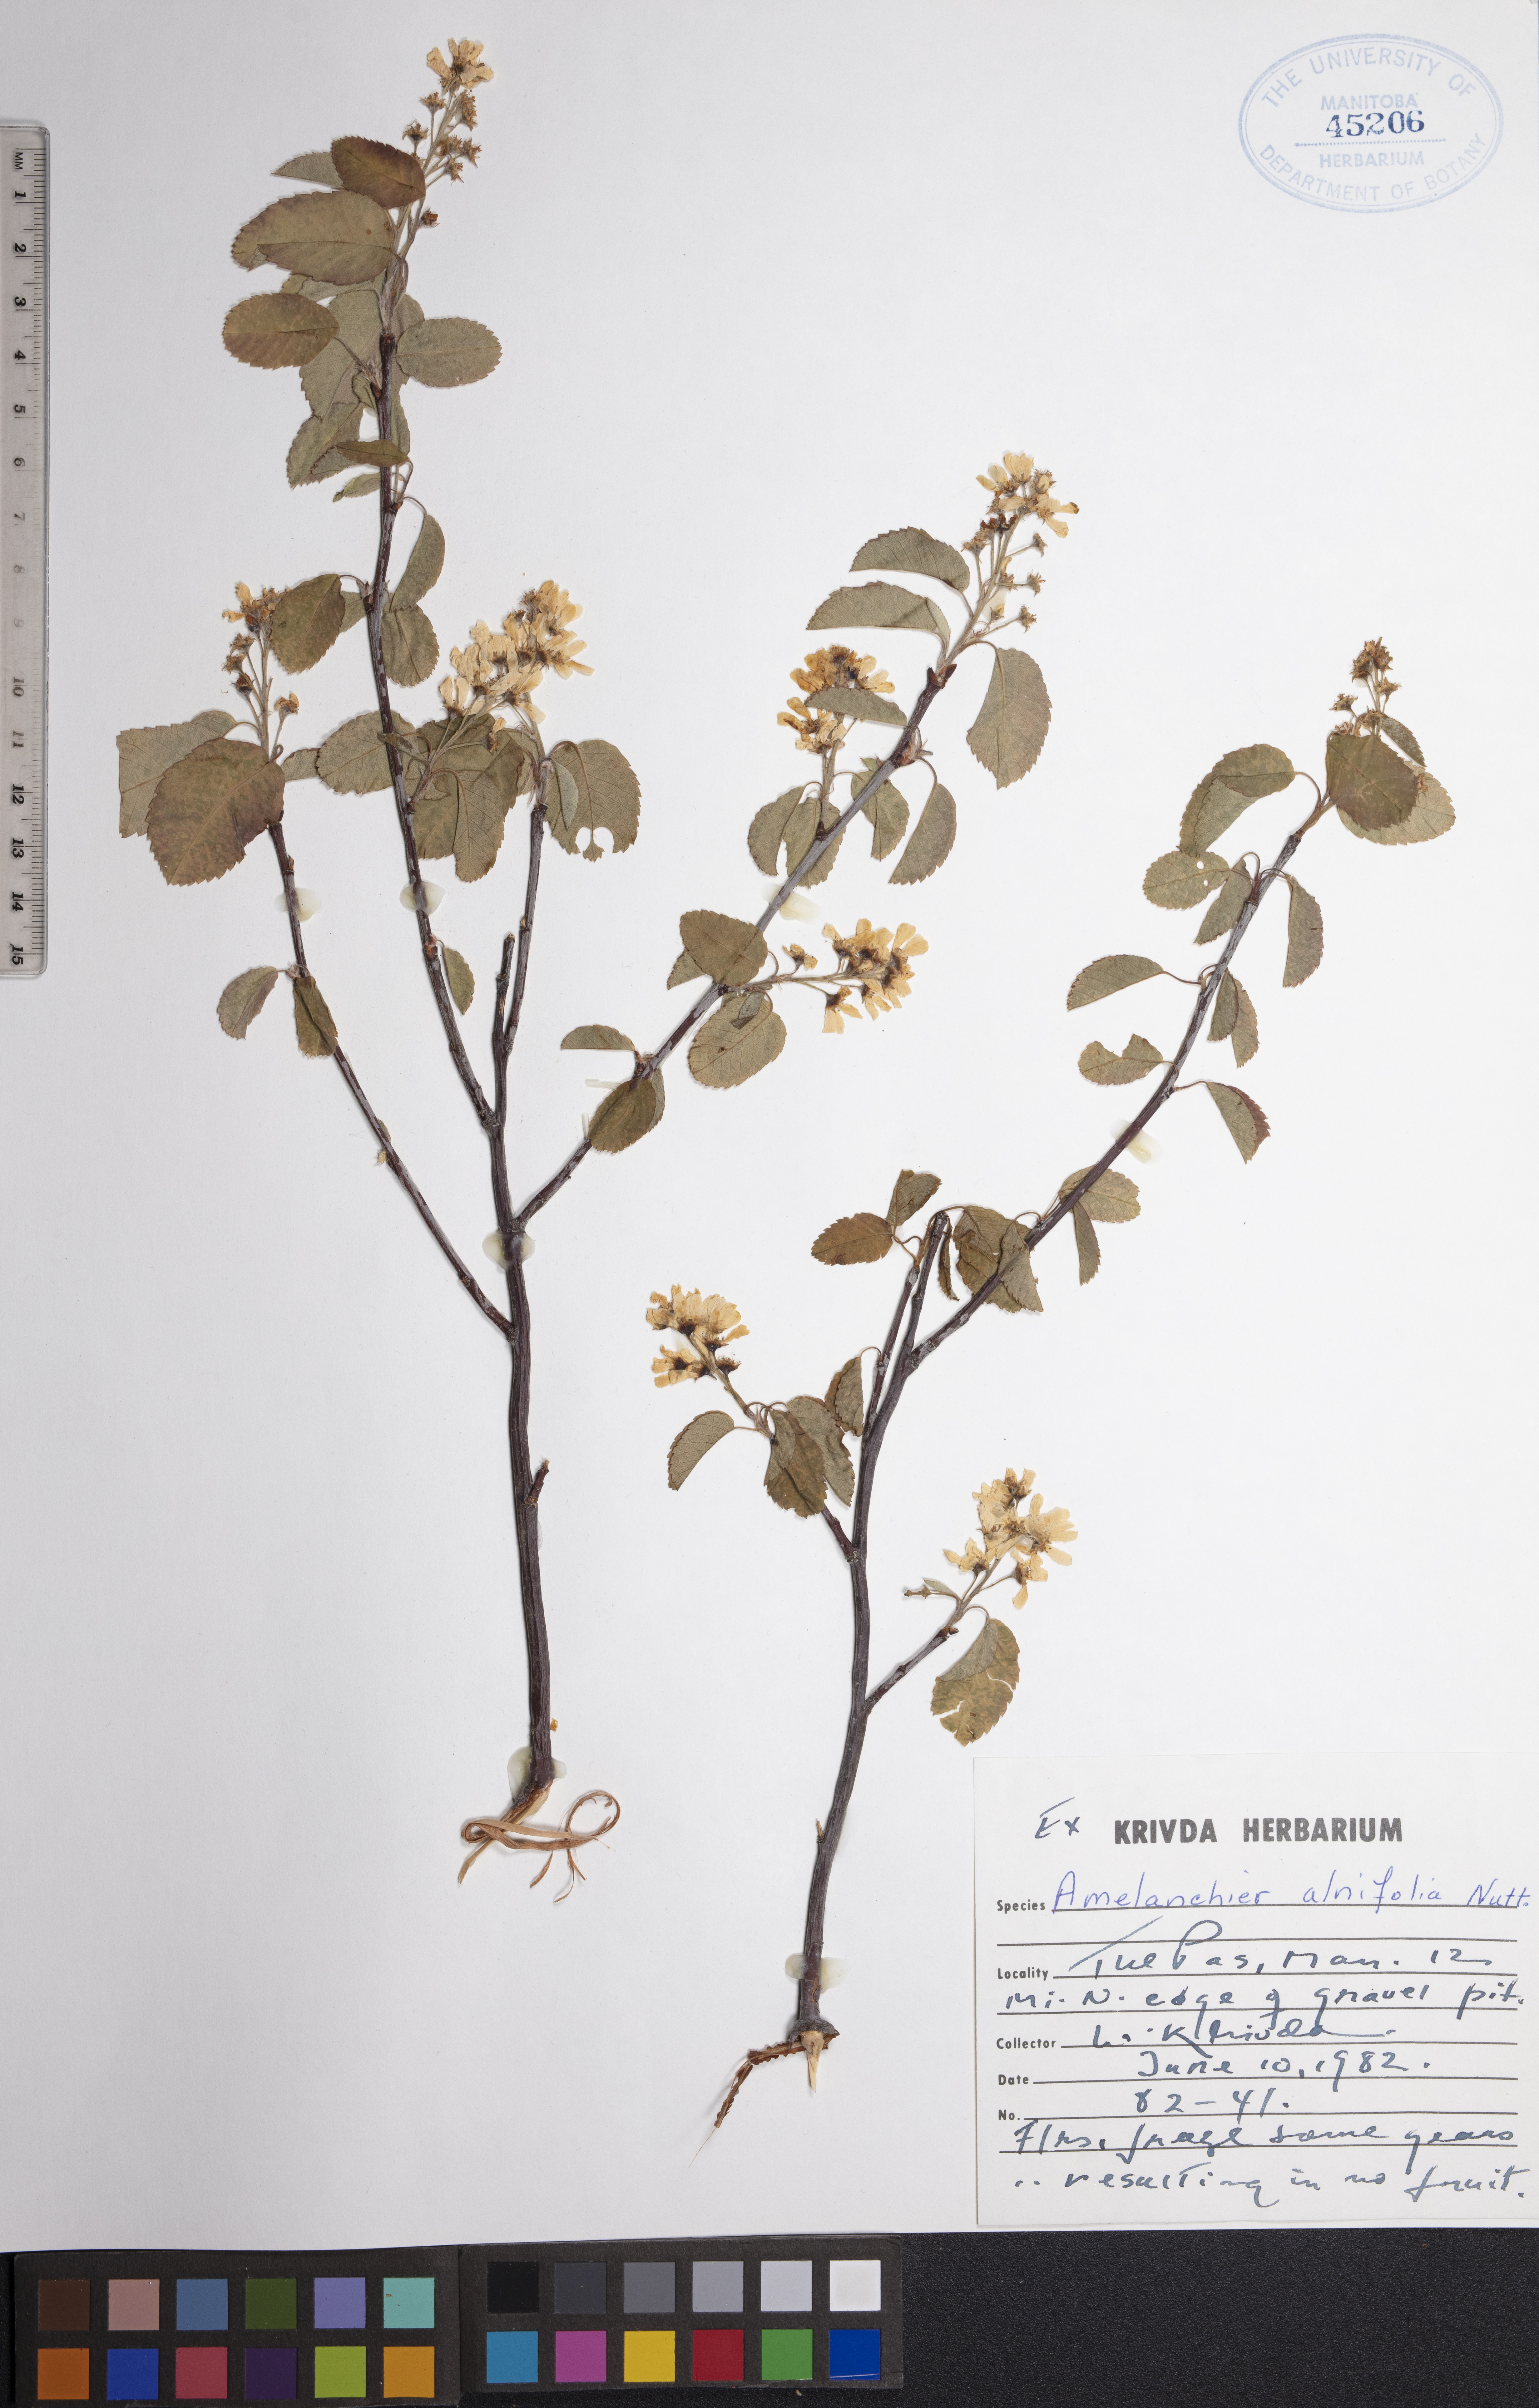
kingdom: Plantae
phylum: Tracheophyta
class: Magnoliopsida
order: Rosales
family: Rosaceae
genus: Amelanchier
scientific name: Amelanchier alnifolia
